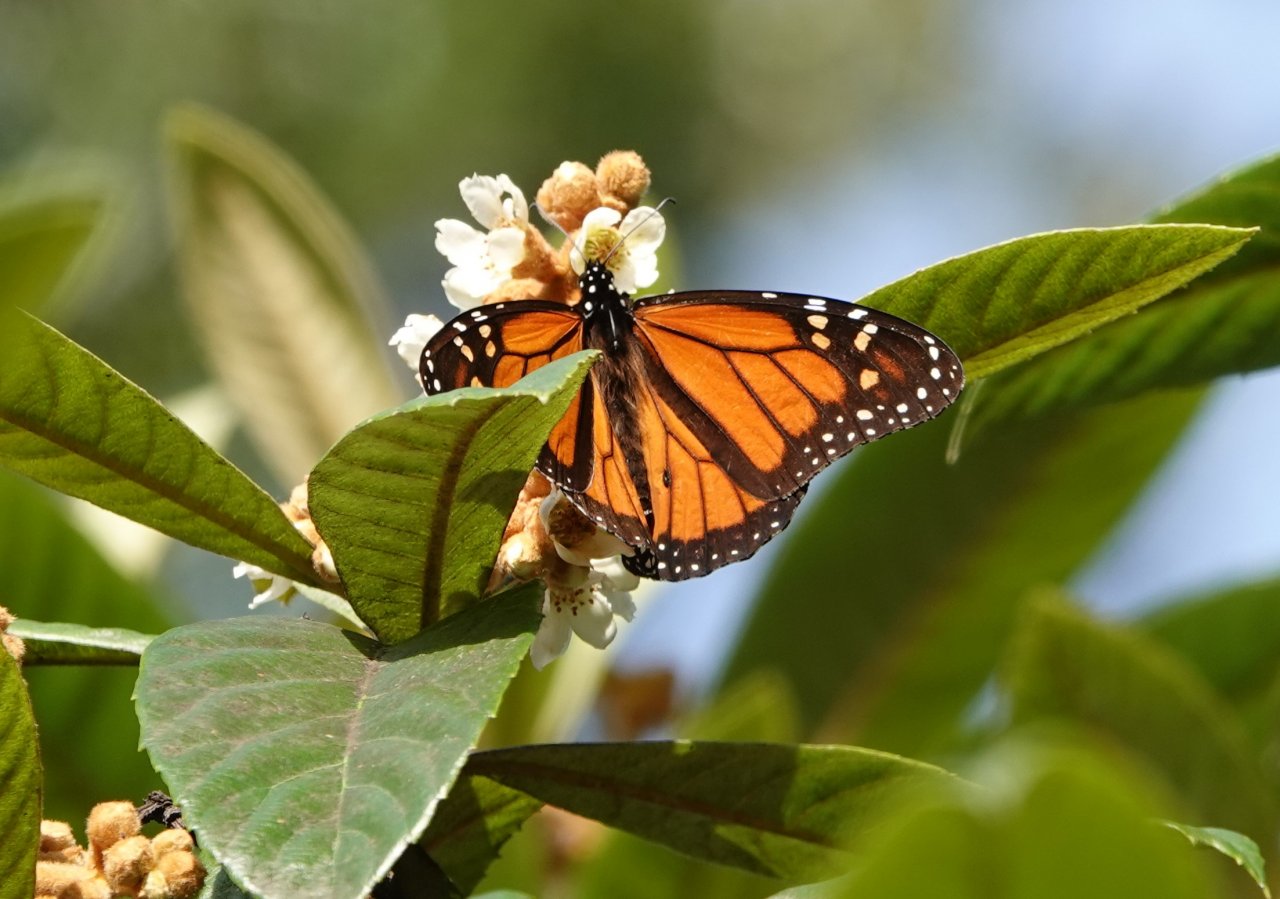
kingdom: Animalia
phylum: Arthropoda
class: Insecta
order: Lepidoptera
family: Nymphalidae
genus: Danaus
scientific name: Danaus plexippus
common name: Monarch
